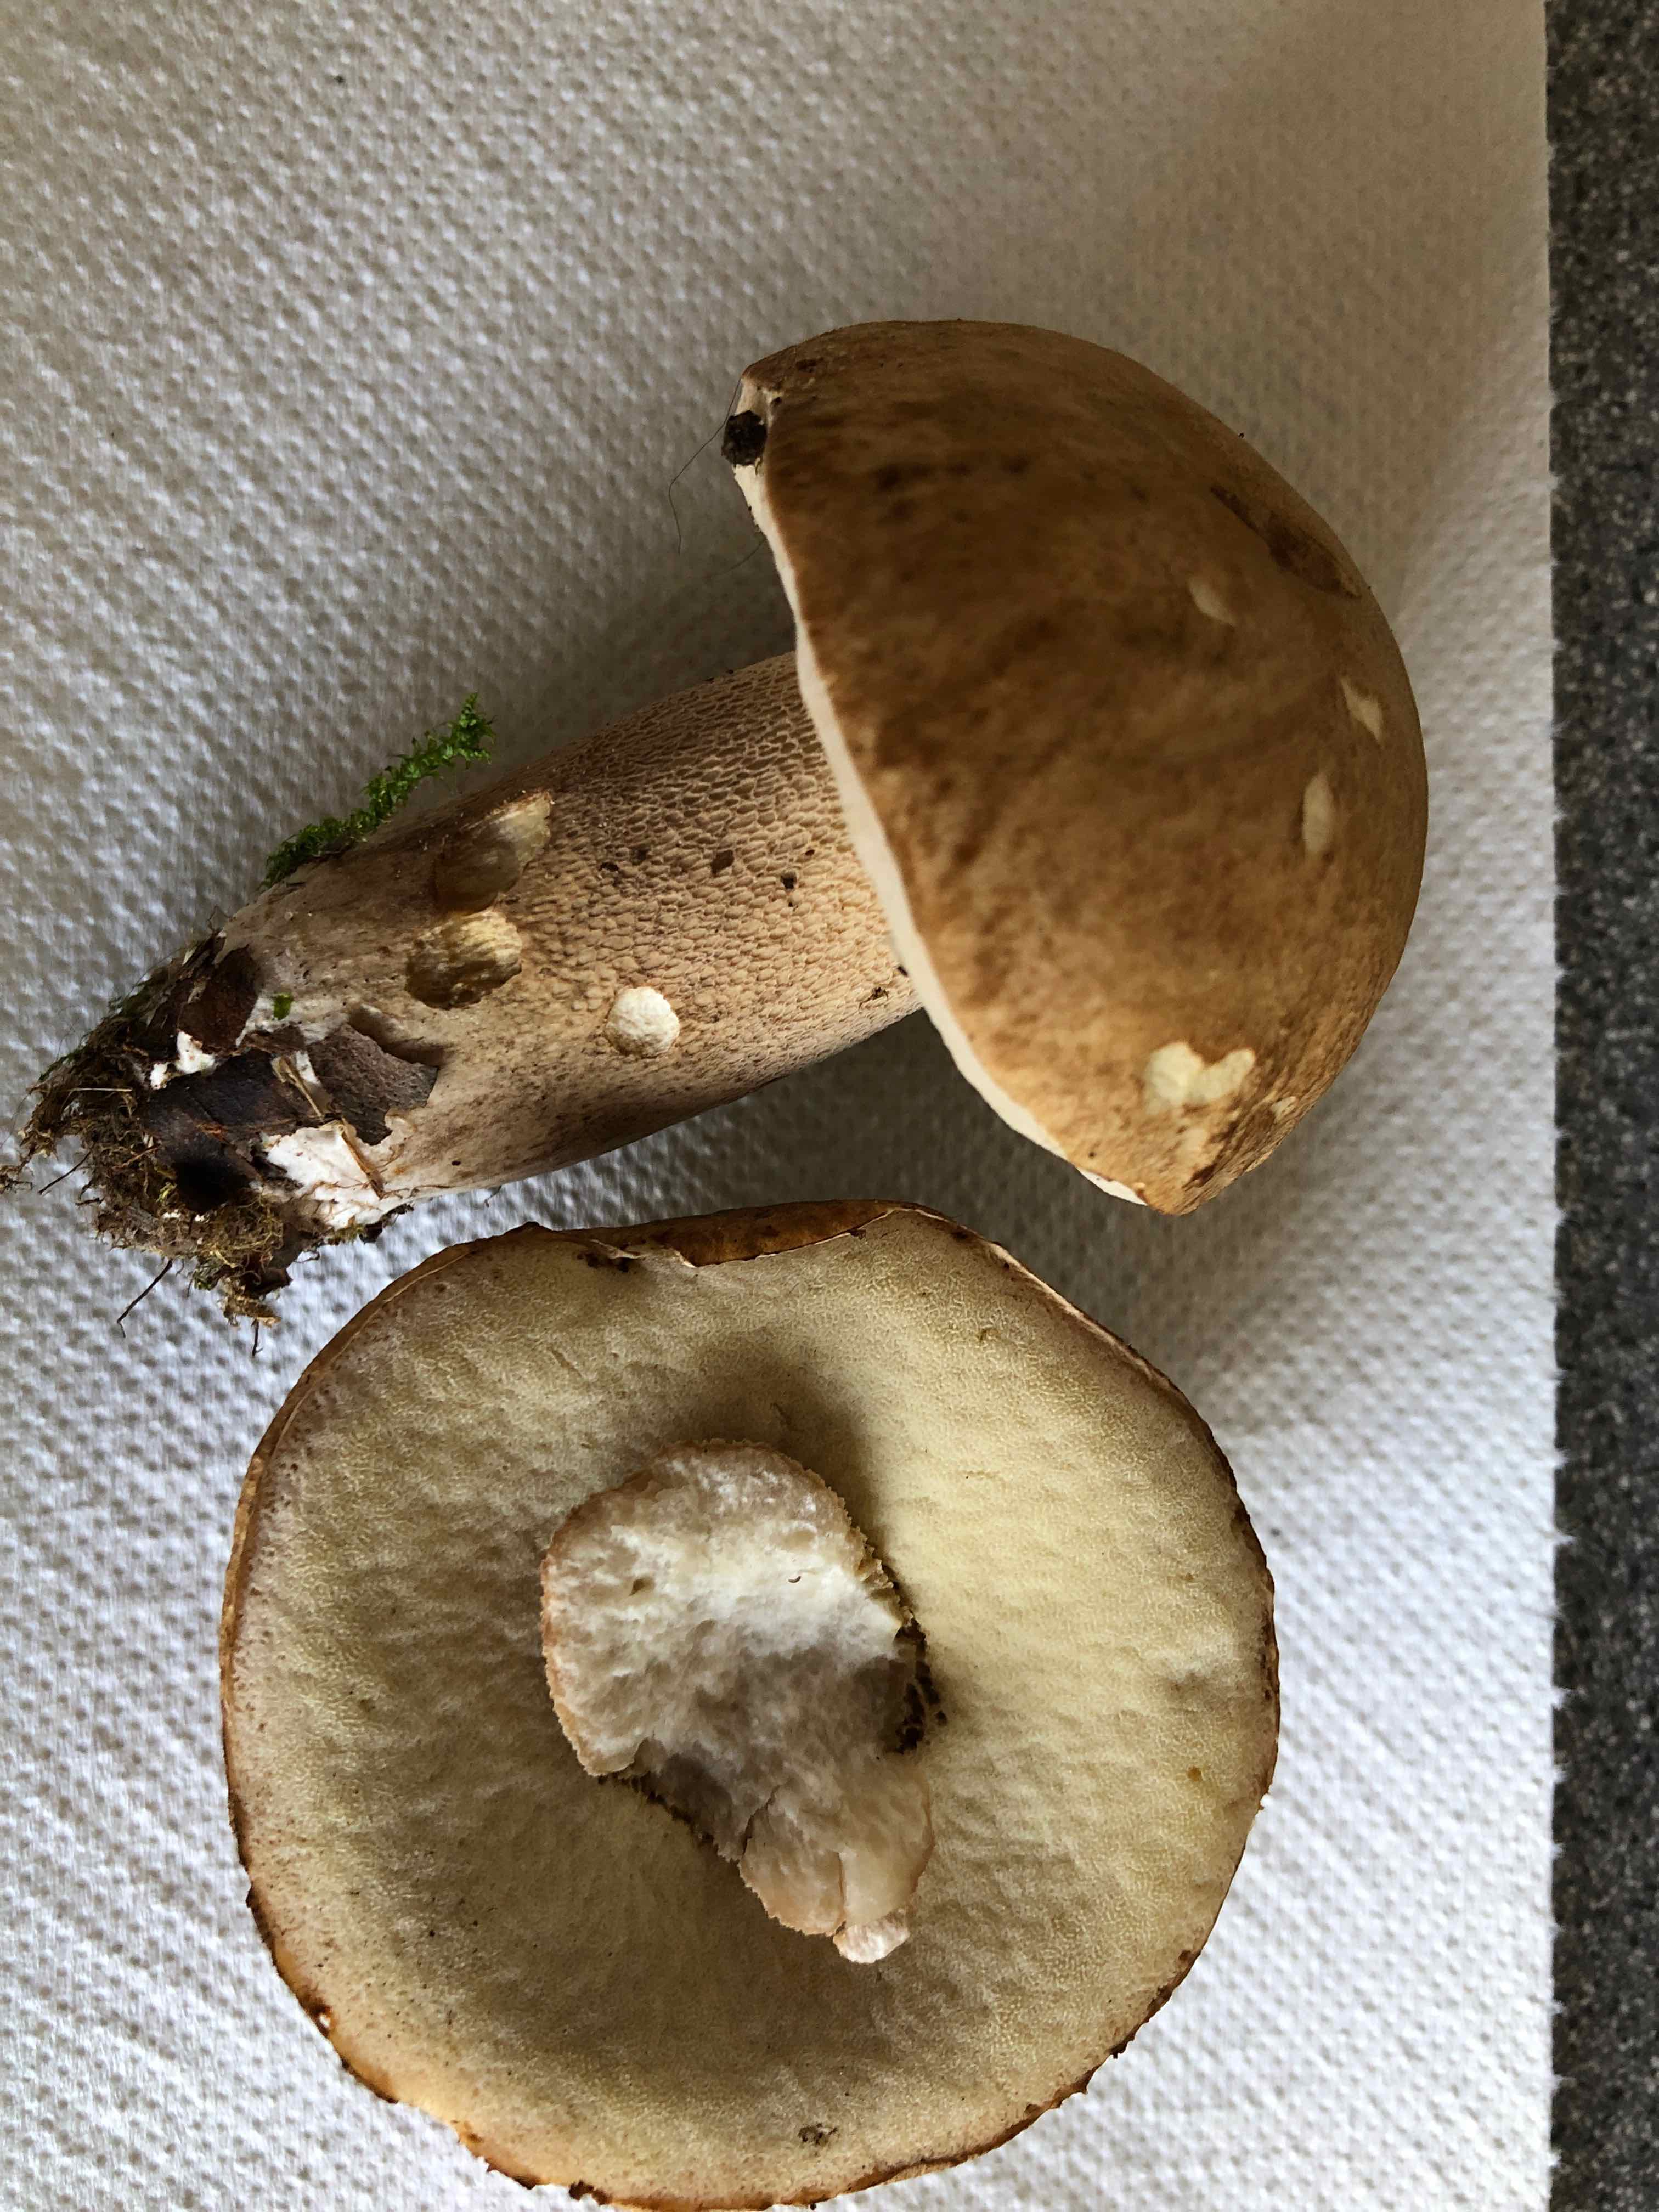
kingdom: Fungi
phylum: Basidiomycota
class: Agaricomycetes
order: Boletales
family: Boletaceae
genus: Boletus
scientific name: Boletus reticulatus
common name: sommer-rørhat
